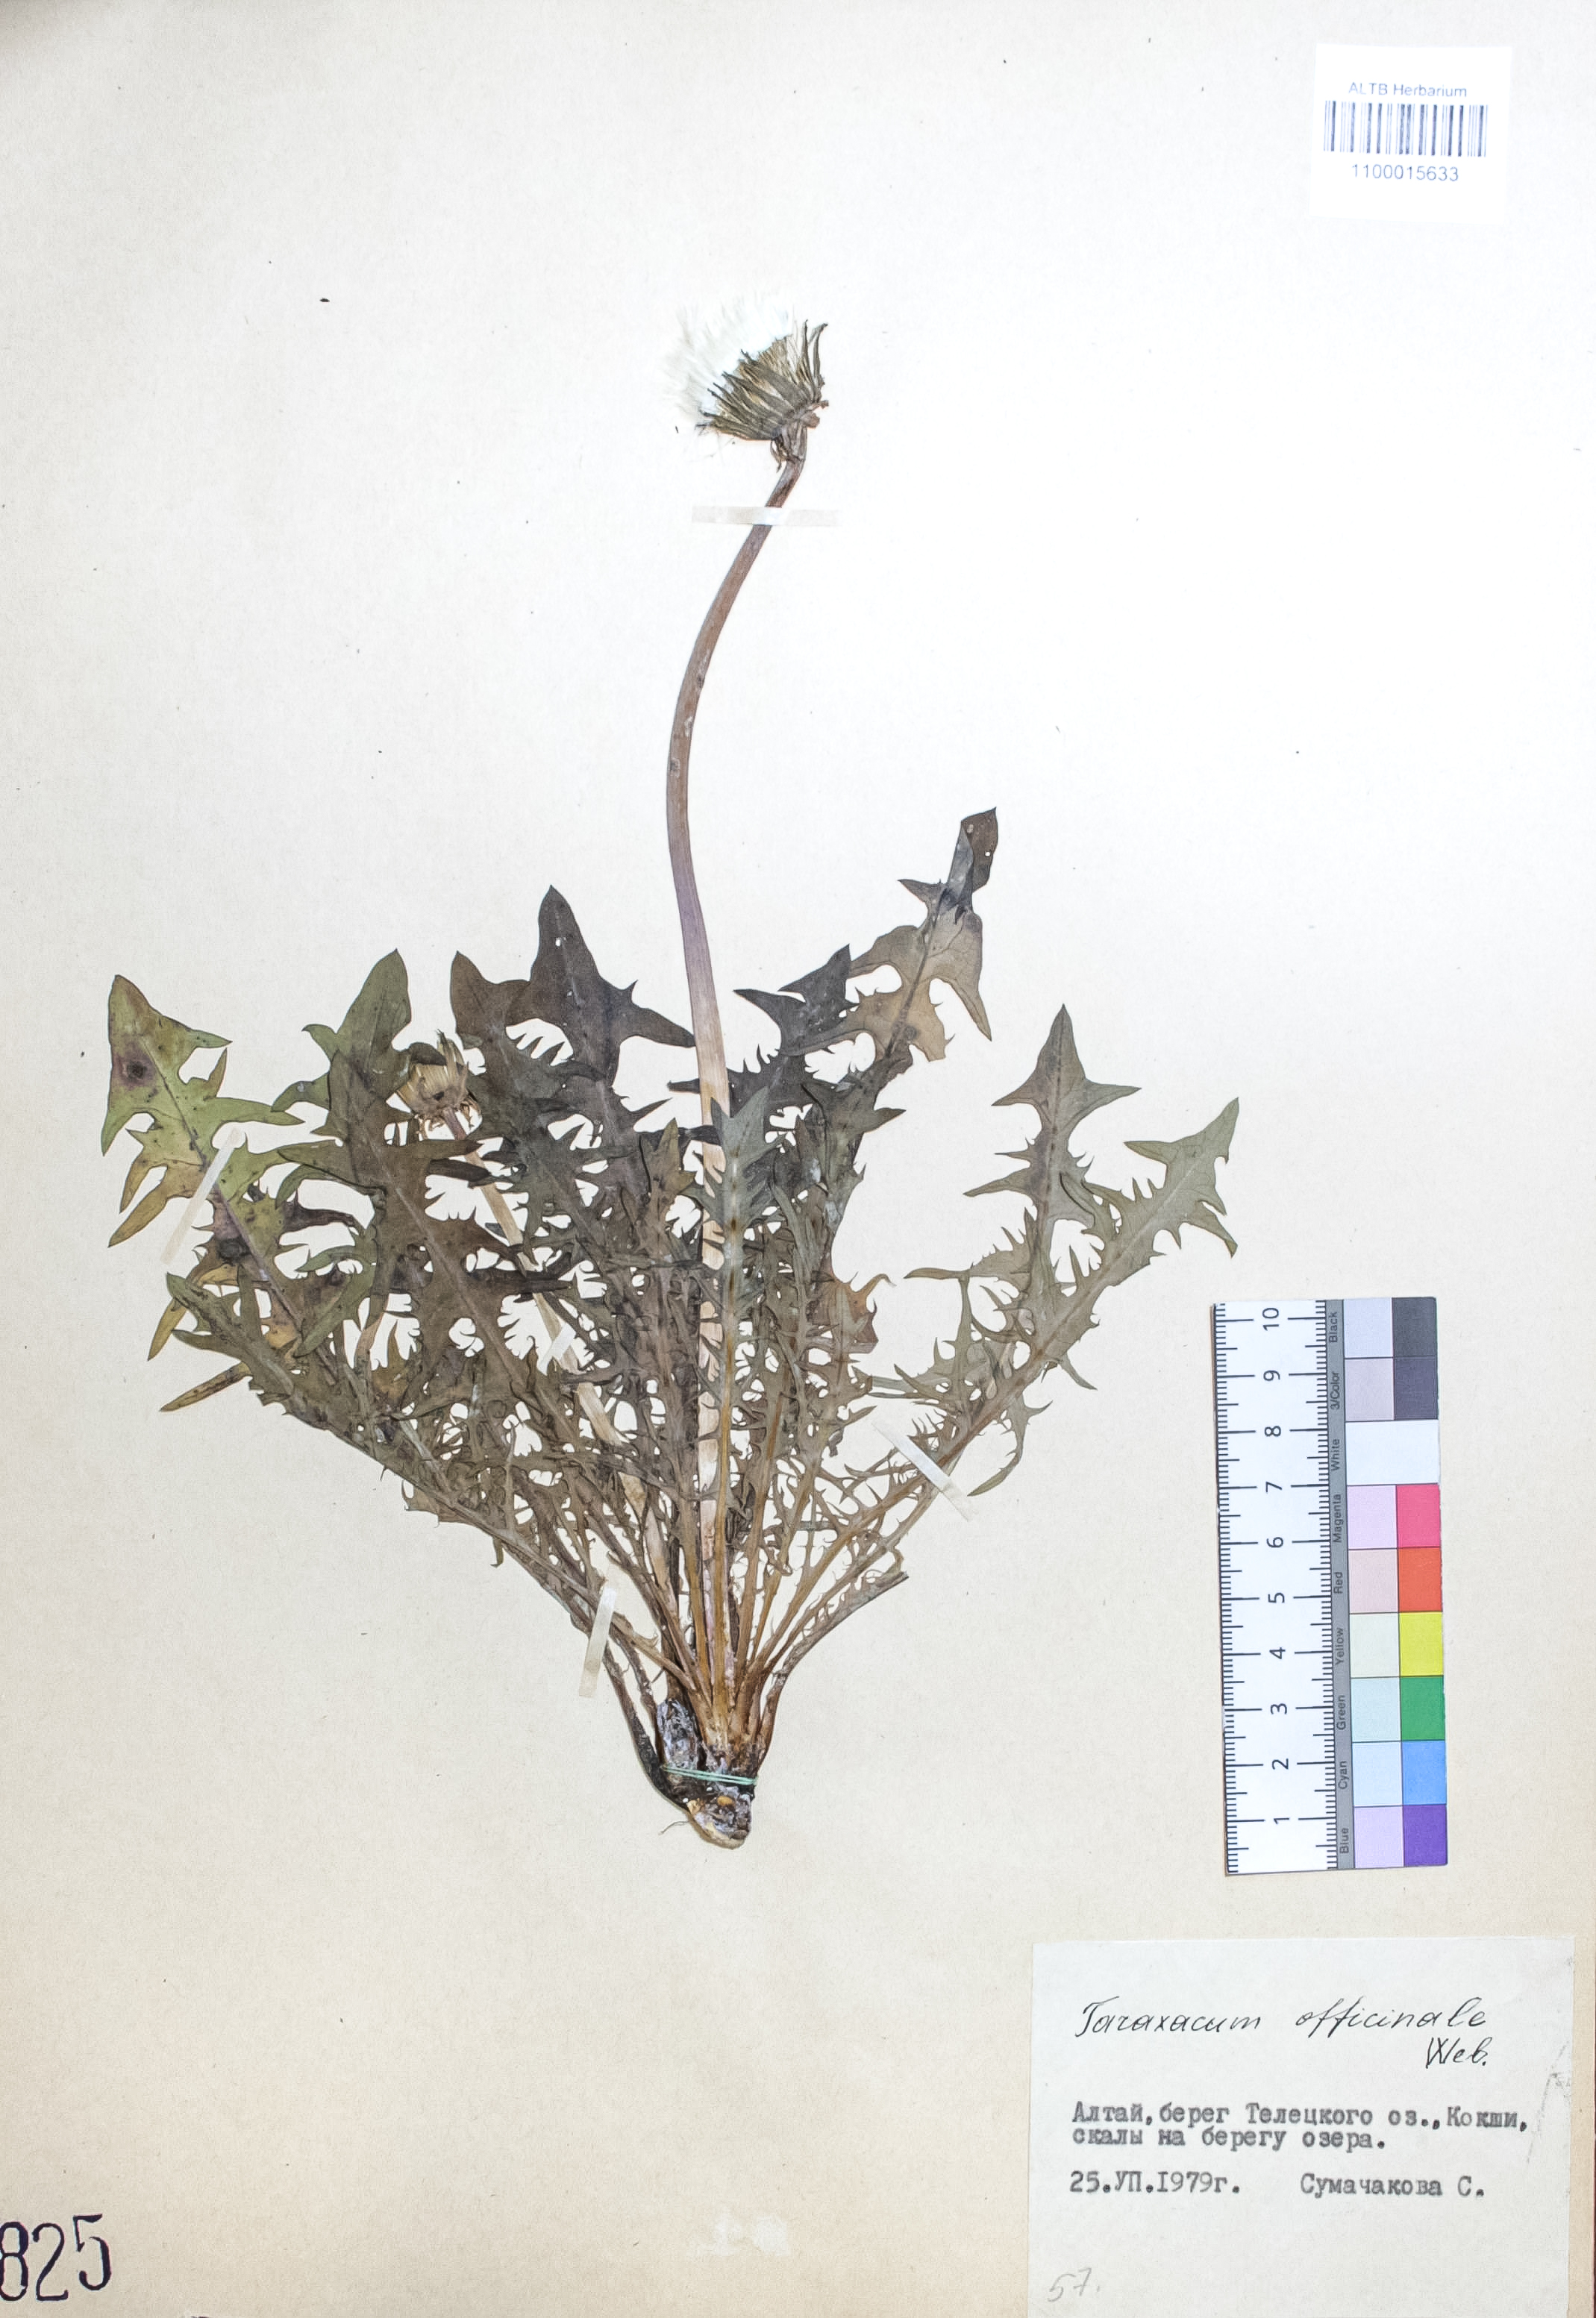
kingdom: Plantae
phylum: Tracheophyta
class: Magnoliopsida
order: Asterales
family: Asteraceae
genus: Taraxacum
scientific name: Taraxacum officinale
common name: Common dandelion
